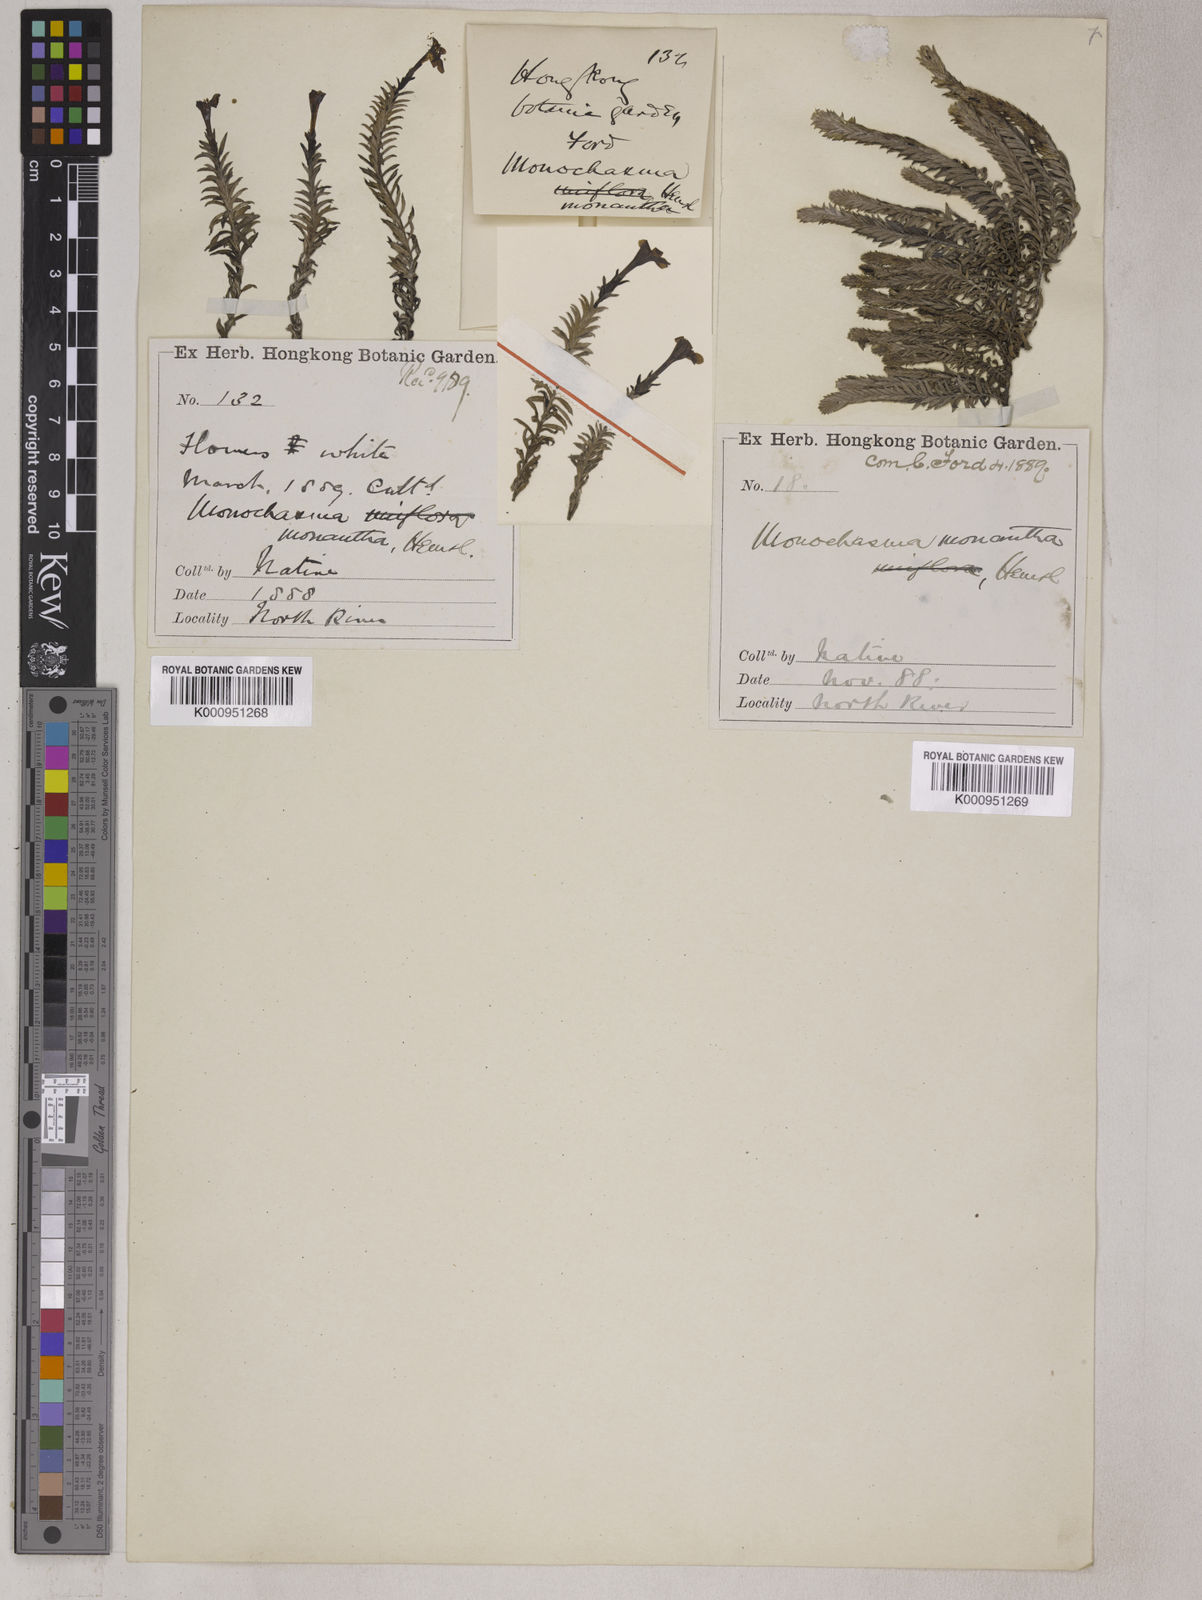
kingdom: Plantae
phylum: Tracheophyta
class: Magnoliopsida
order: Lamiales
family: Orobanchaceae
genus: Bungea
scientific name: Bungea
